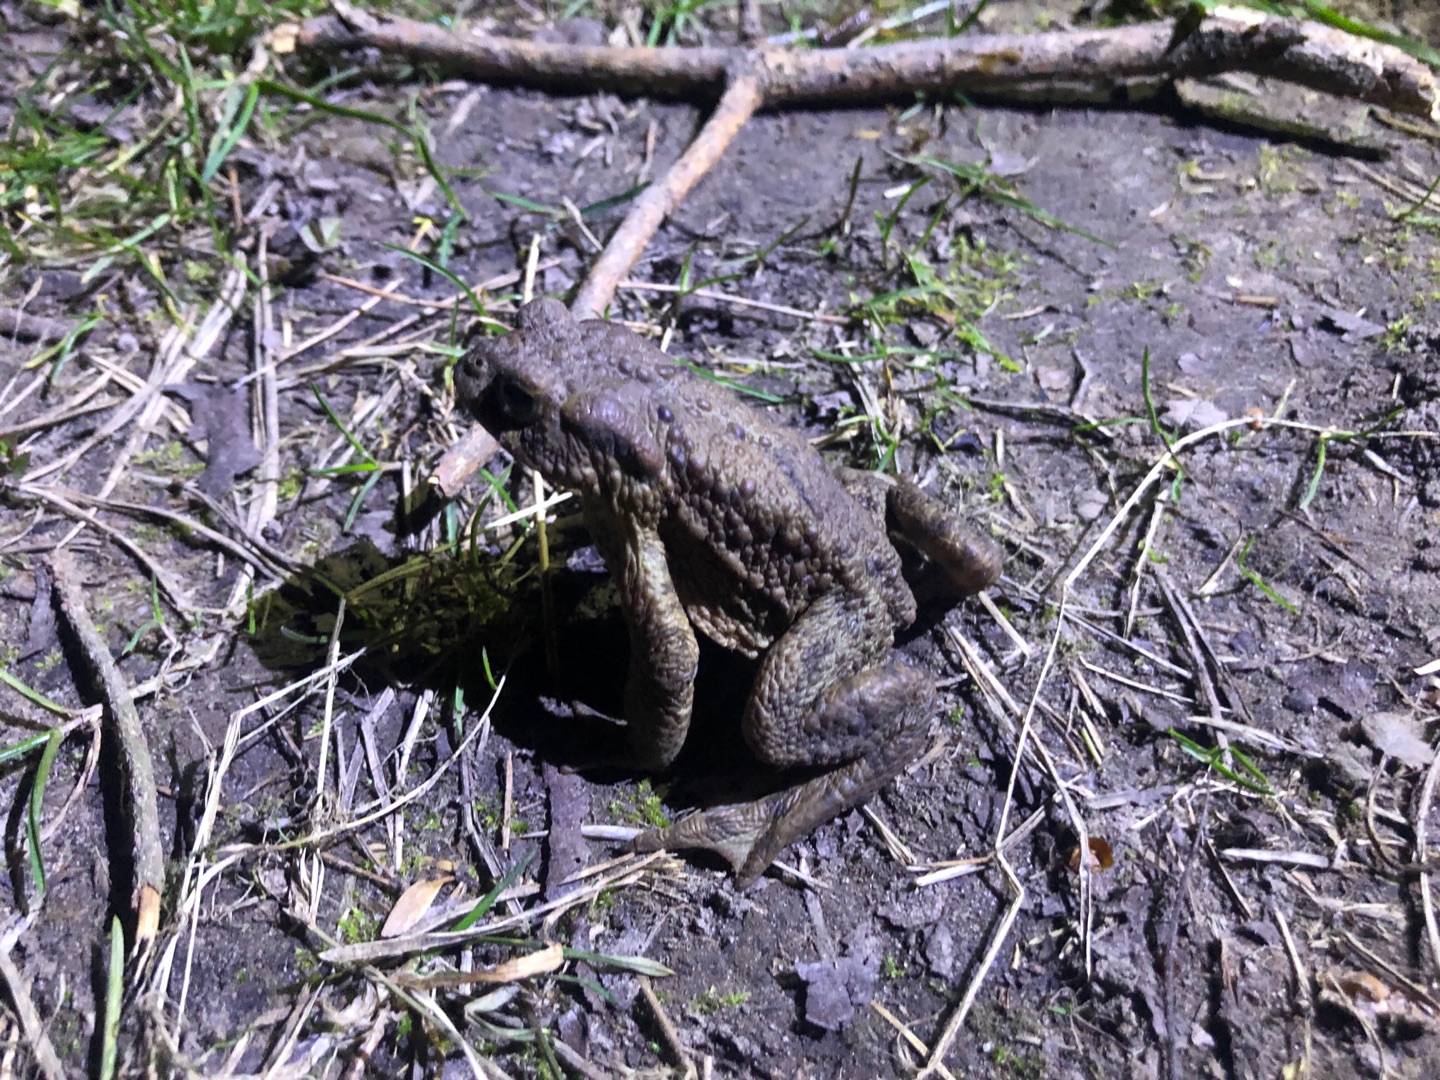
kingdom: Animalia
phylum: Chordata
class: Amphibia
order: Anura
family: Bufonidae
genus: Bufo
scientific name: Bufo bufo
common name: Skrubtudse
